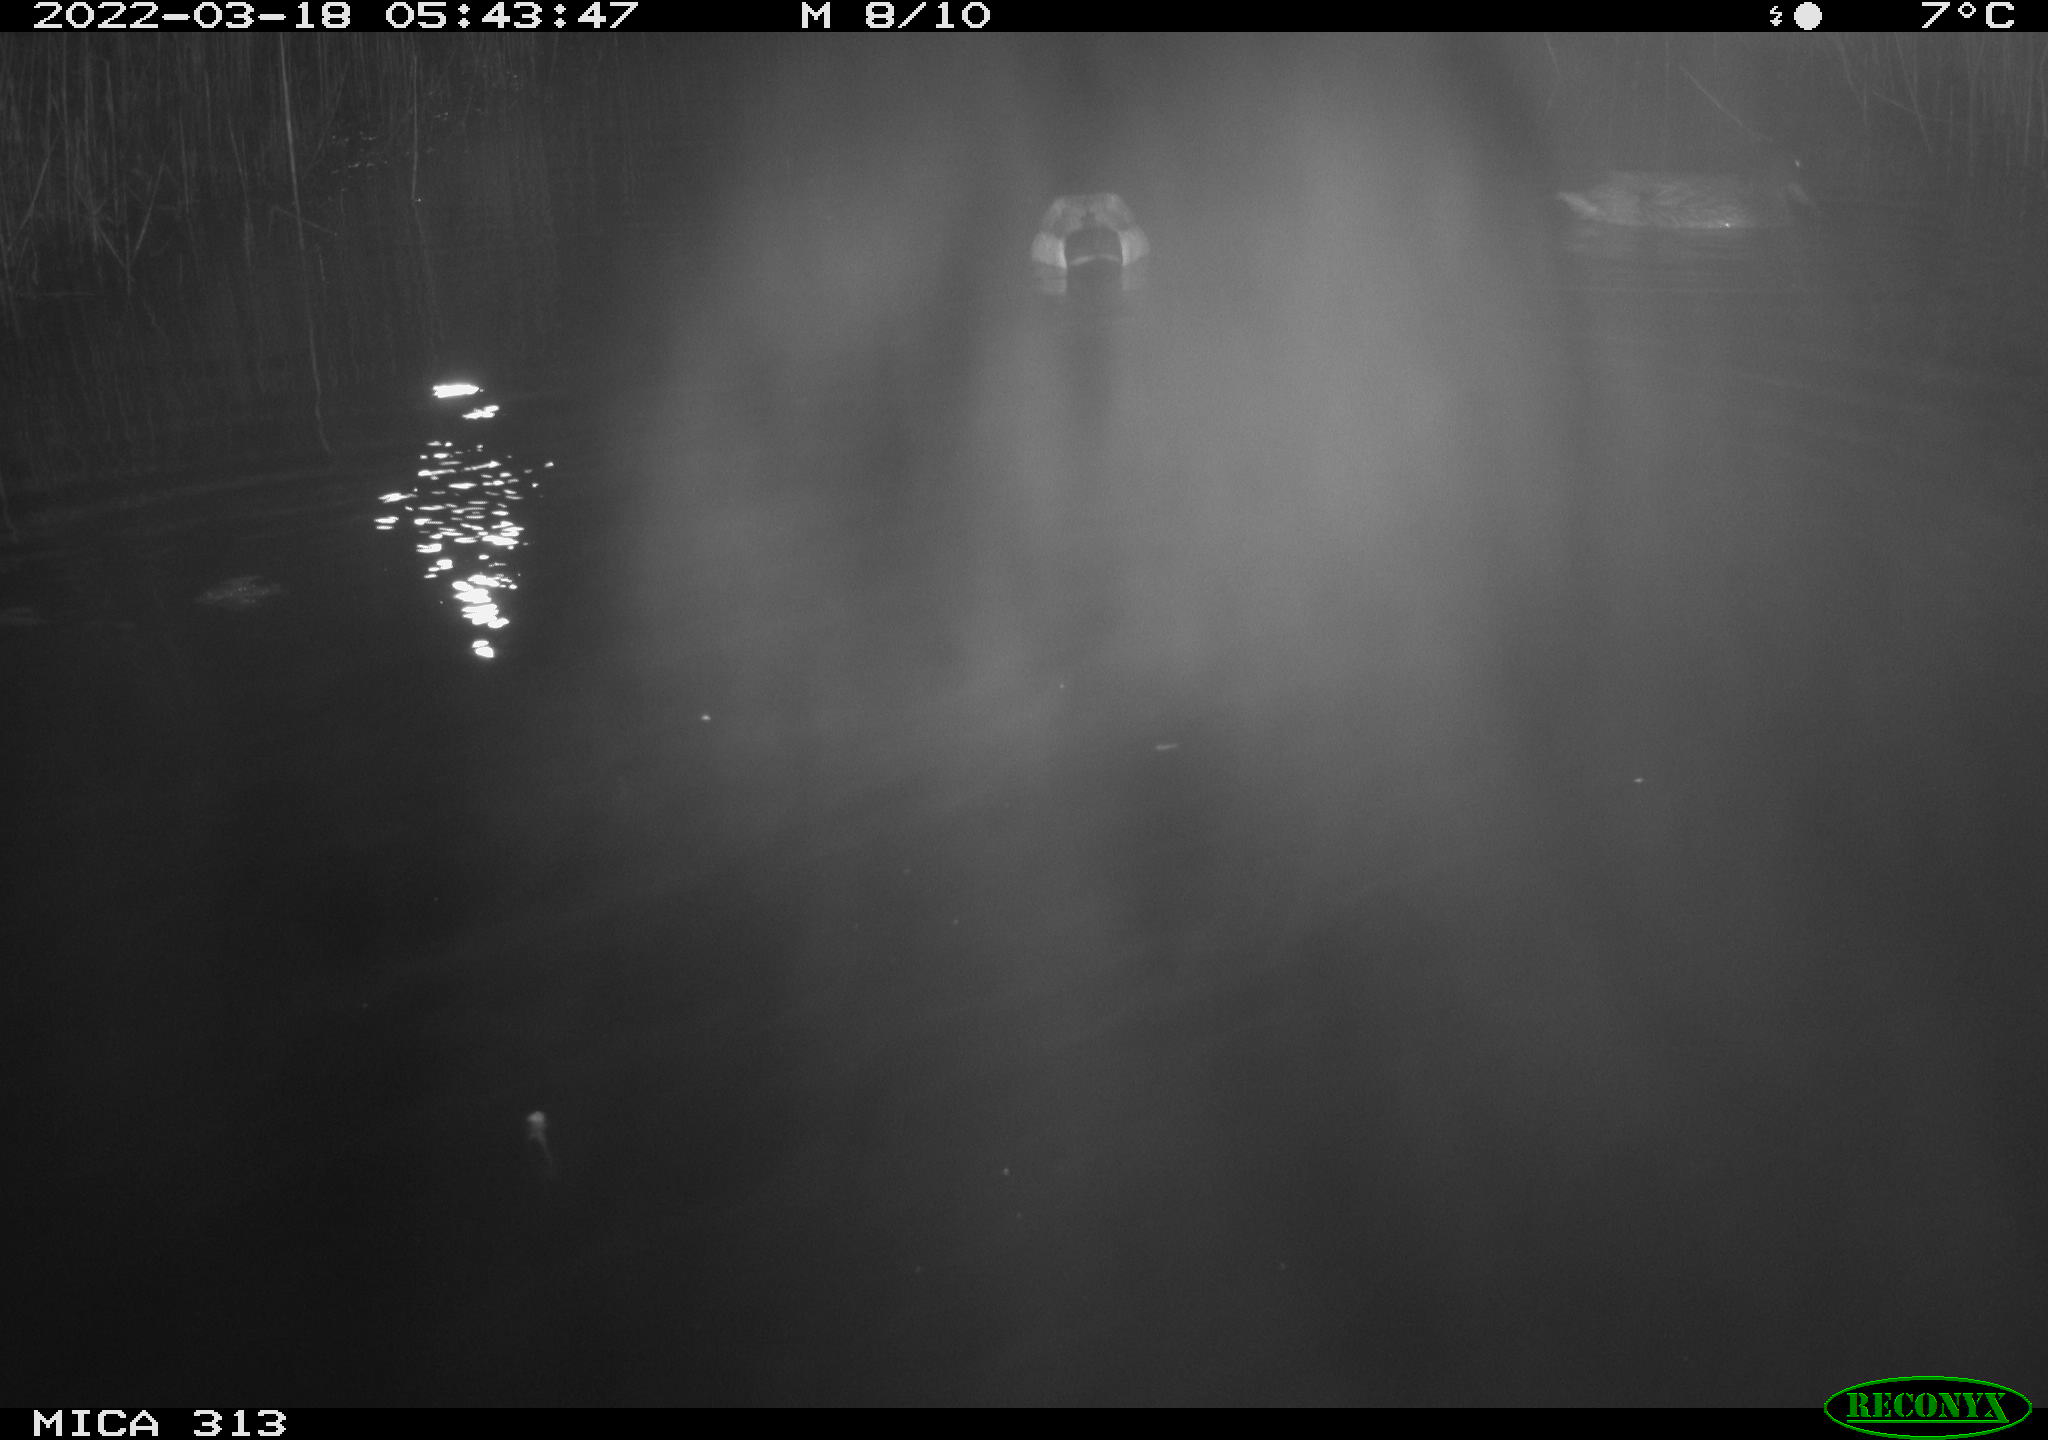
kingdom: Animalia
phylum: Chordata
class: Aves
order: Anseriformes
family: Anatidae
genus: Mareca
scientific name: Mareca strepera
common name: Gadwall
